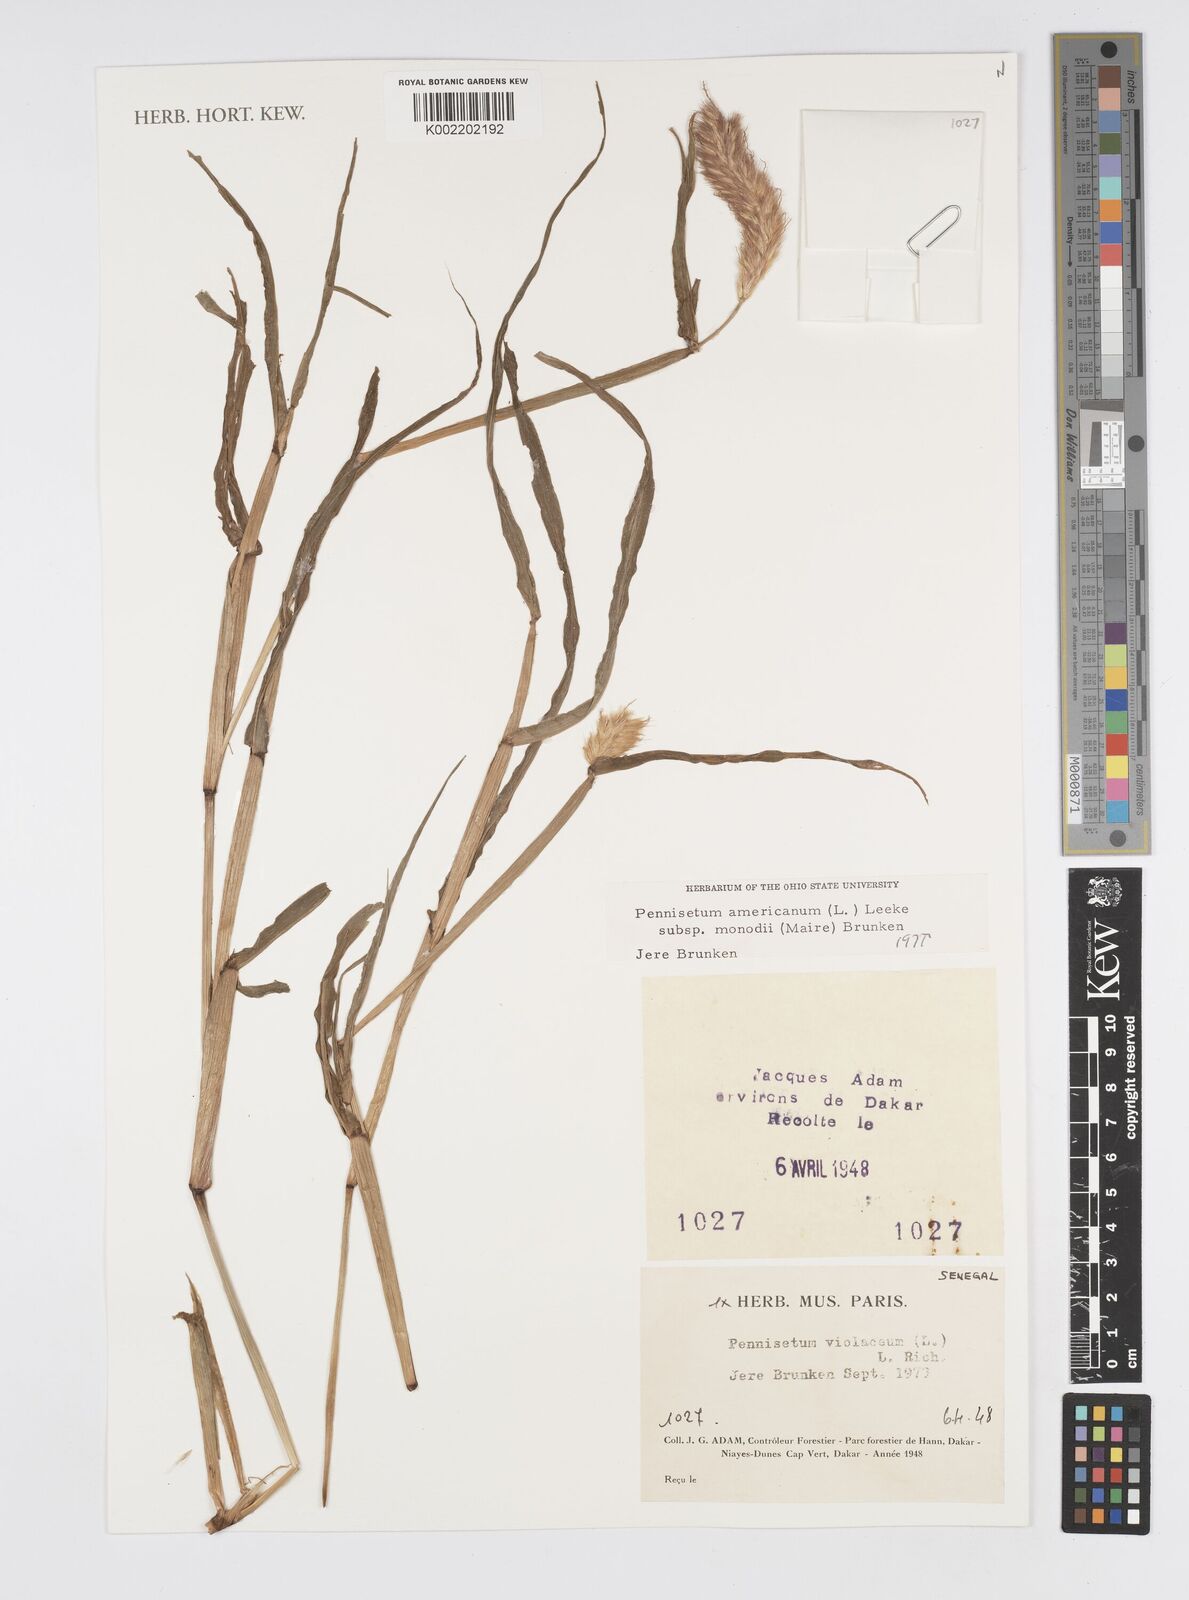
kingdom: Plantae
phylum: Tracheophyta
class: Liliopsida
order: Poales
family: Poaceae
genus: Cenchrus
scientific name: Cenchrus violaceus
